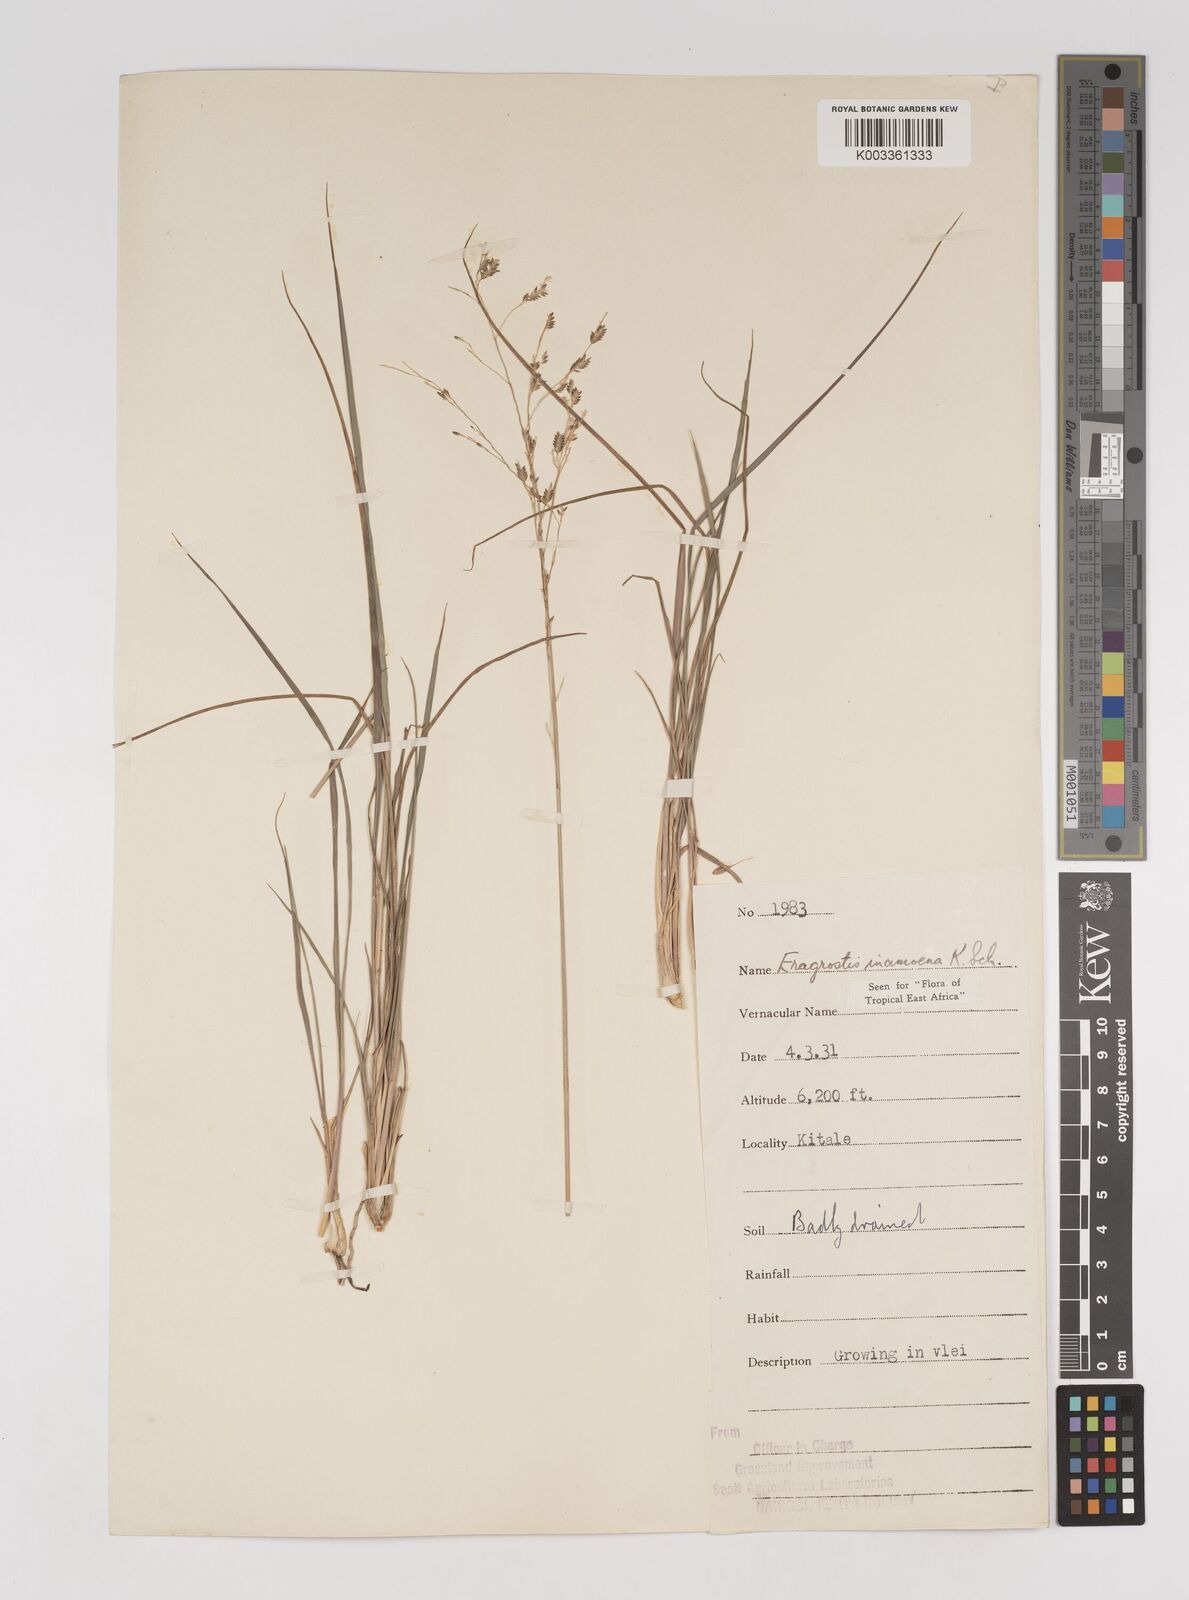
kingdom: Plantae
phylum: Tracheophyta
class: Liliopsida
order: Poales
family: Poaceae
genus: Eragrostis
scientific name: Eragrostis inamoena
